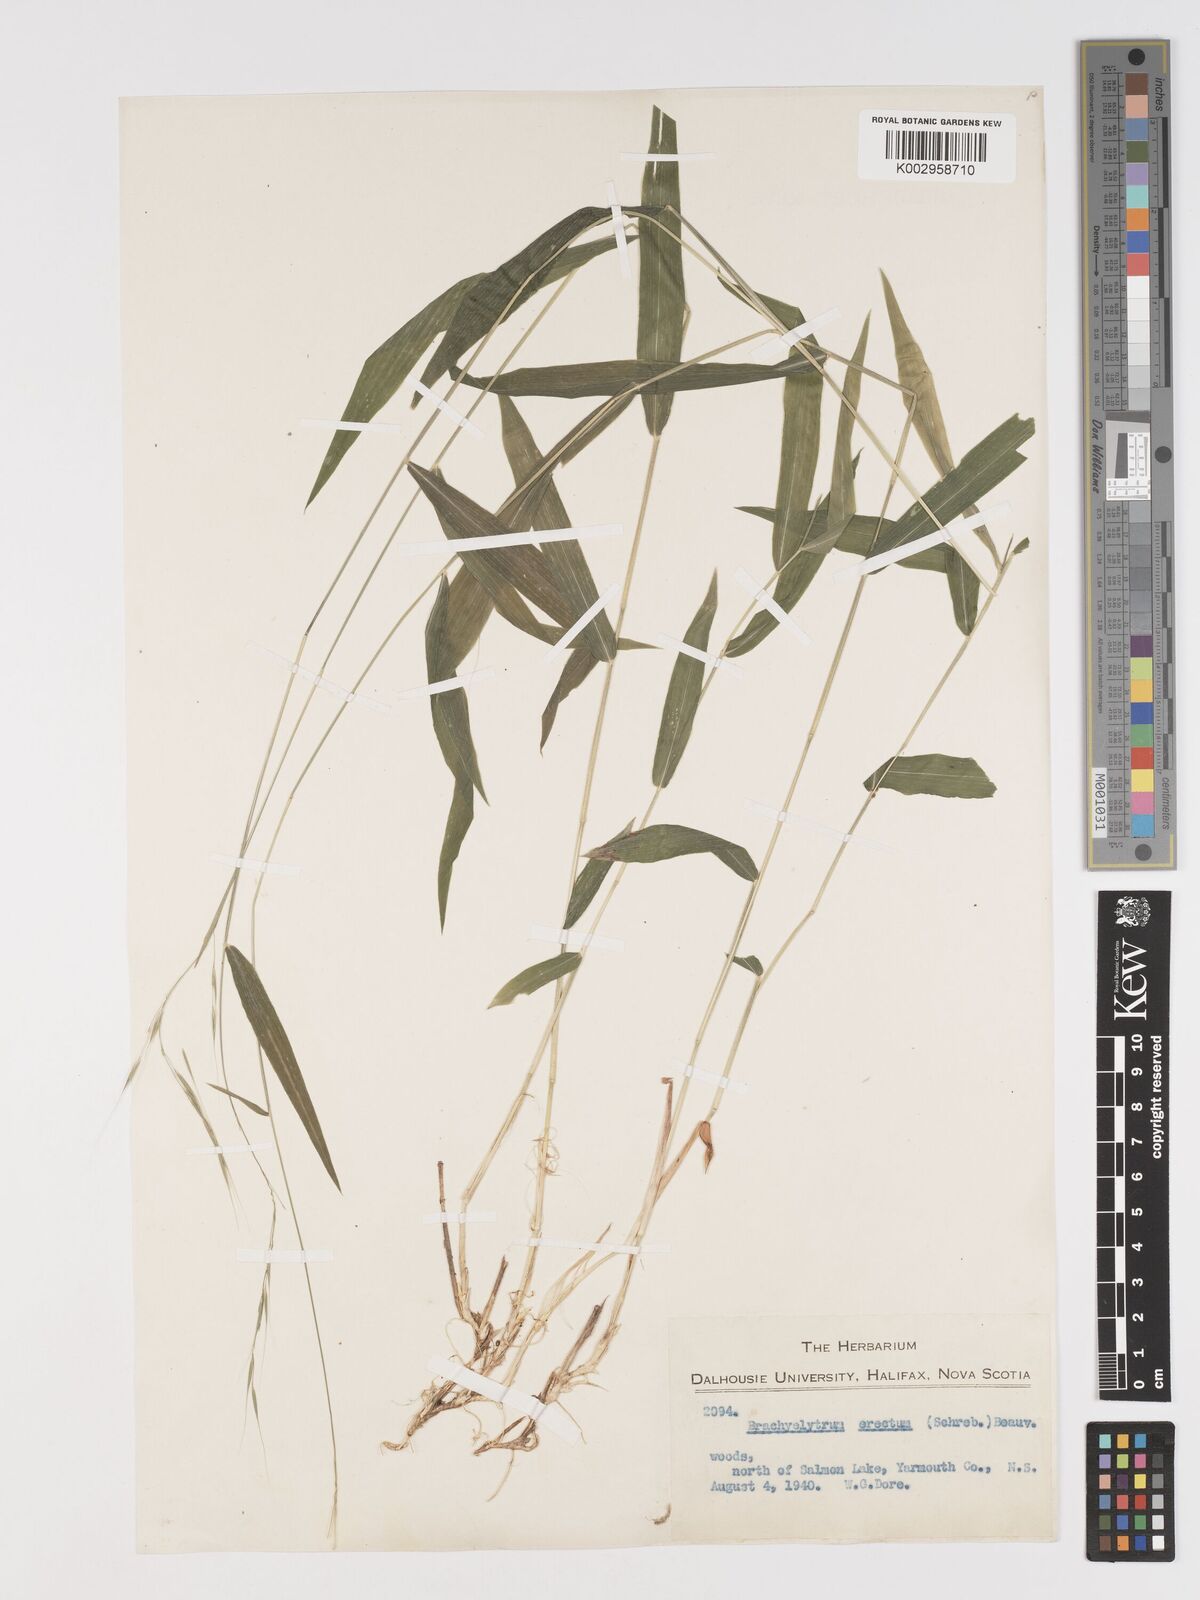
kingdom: Plantae
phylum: Tracheophyta
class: Liliopsida
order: Poales
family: Poaceae
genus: Brachyelytrum
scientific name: Brachyelytrum aristosum
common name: Northern shorthusk
